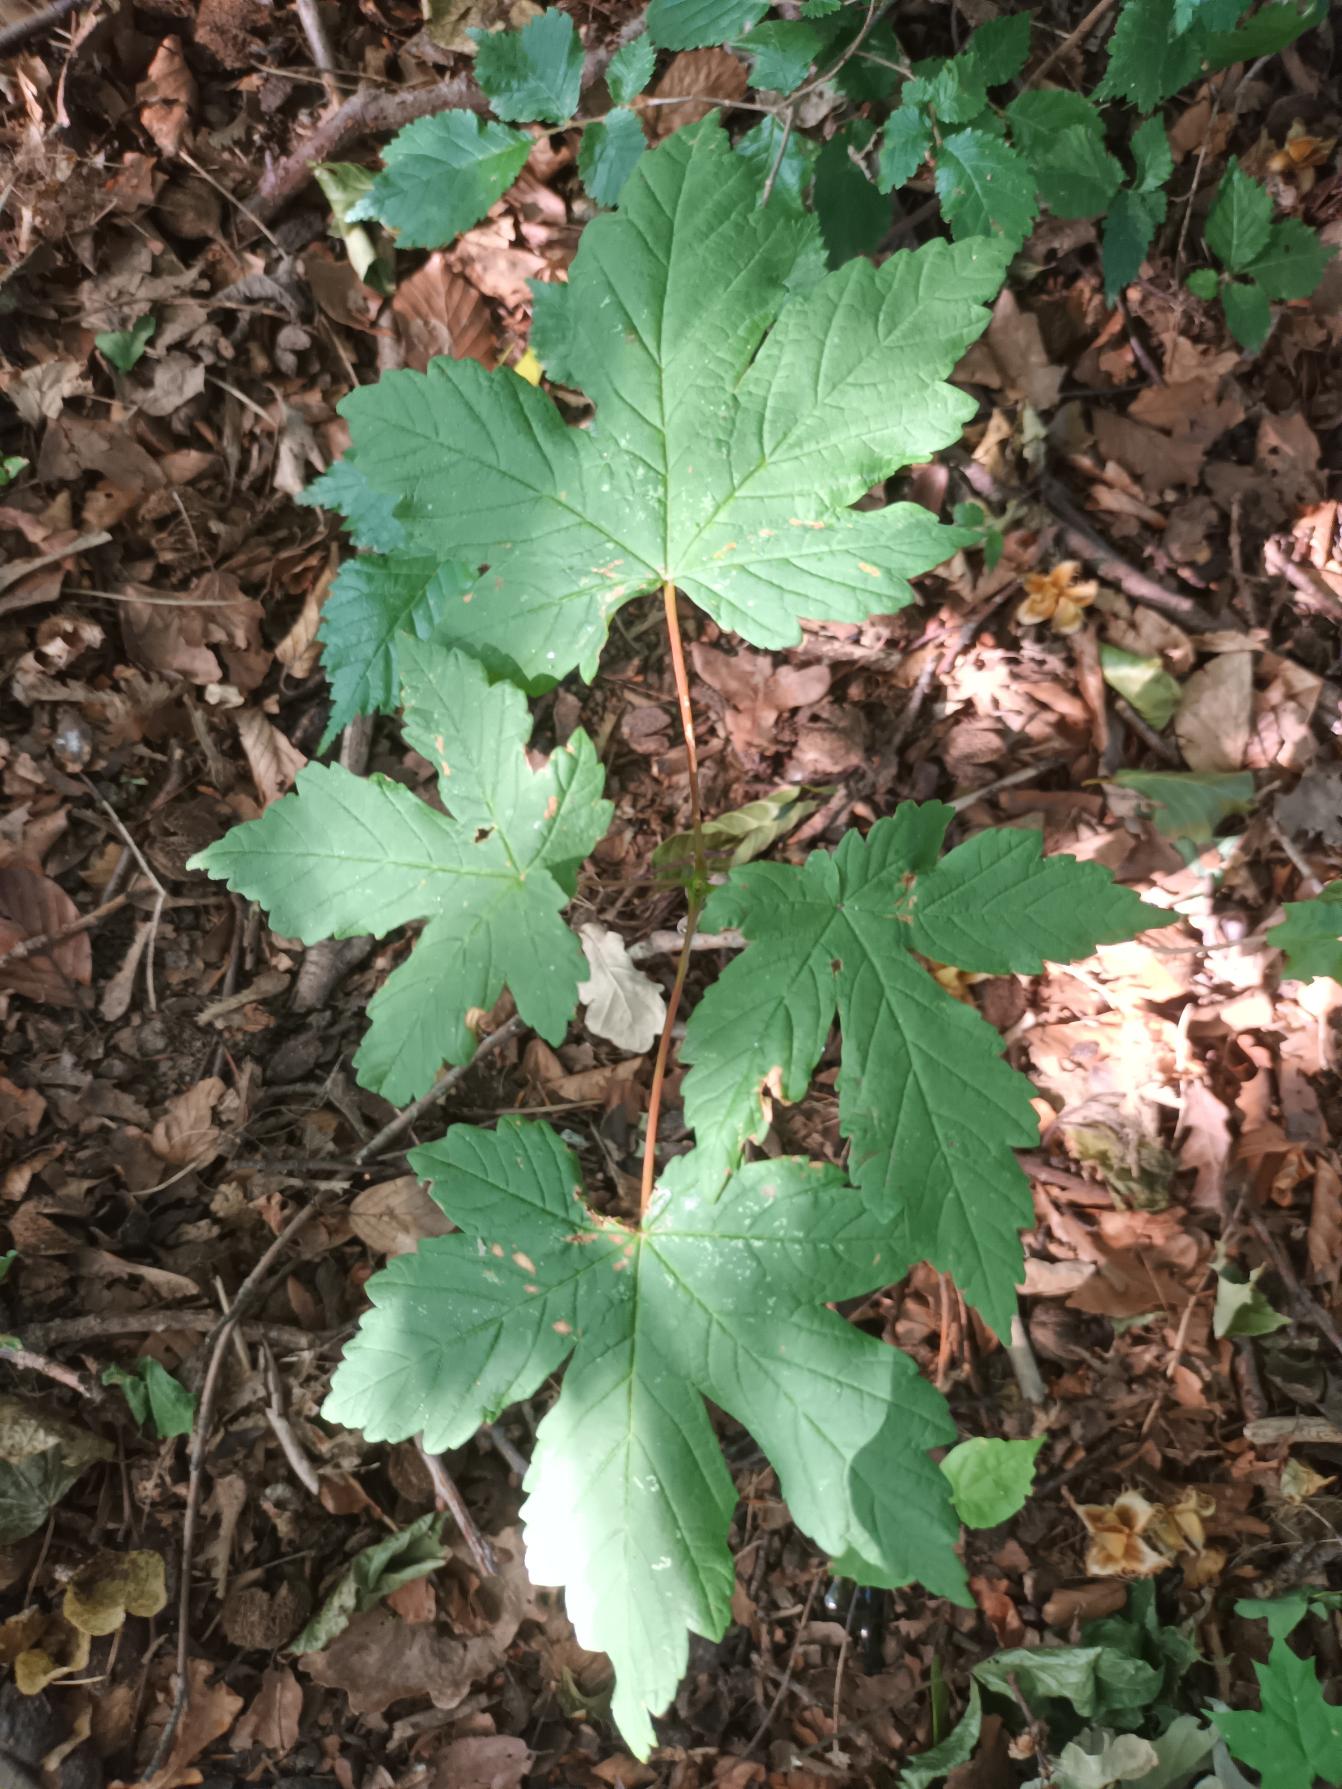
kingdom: Plantae
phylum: Tracheophyta
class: Magnoliopsida
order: Sapindales
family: Sapindaceae
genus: Acer
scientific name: Acer pseudoplatanus
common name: Ahorn
